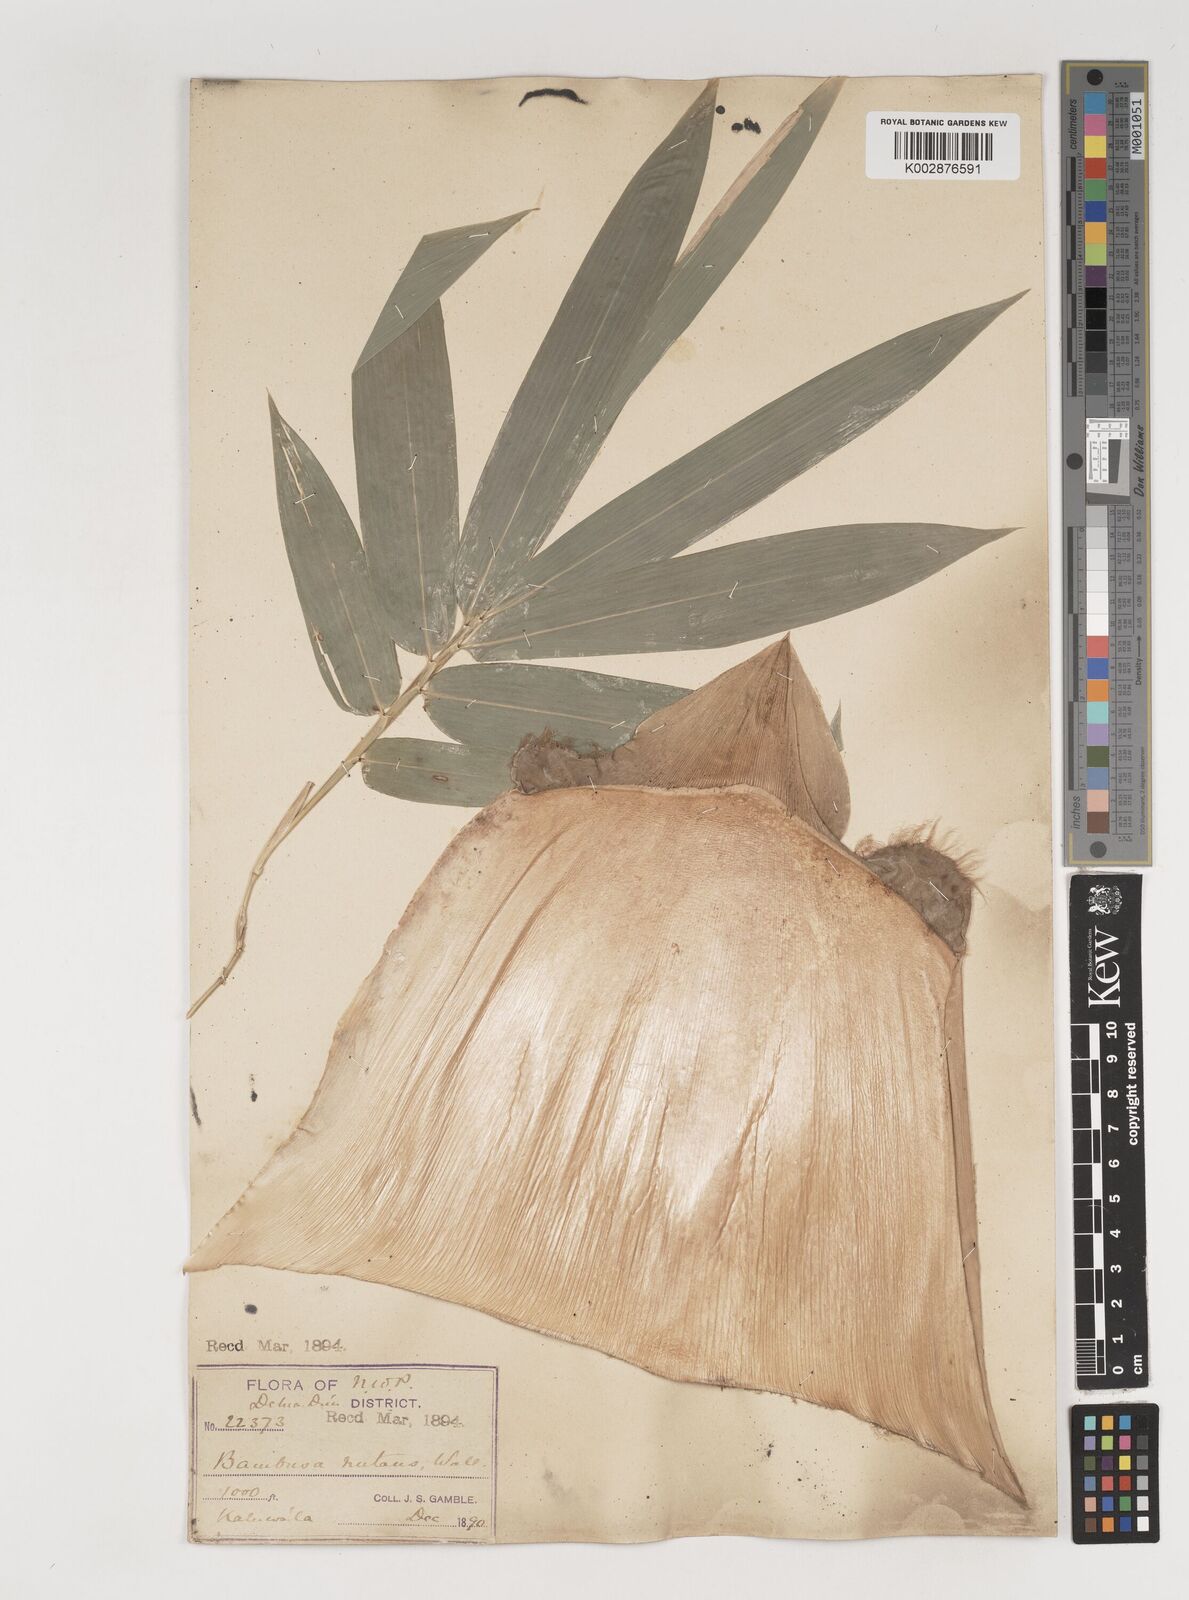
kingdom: Plantae
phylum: Tracheophyta
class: Liliopsida
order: Poales
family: Poaceae
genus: Bambusa
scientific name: Bambusa nutans
